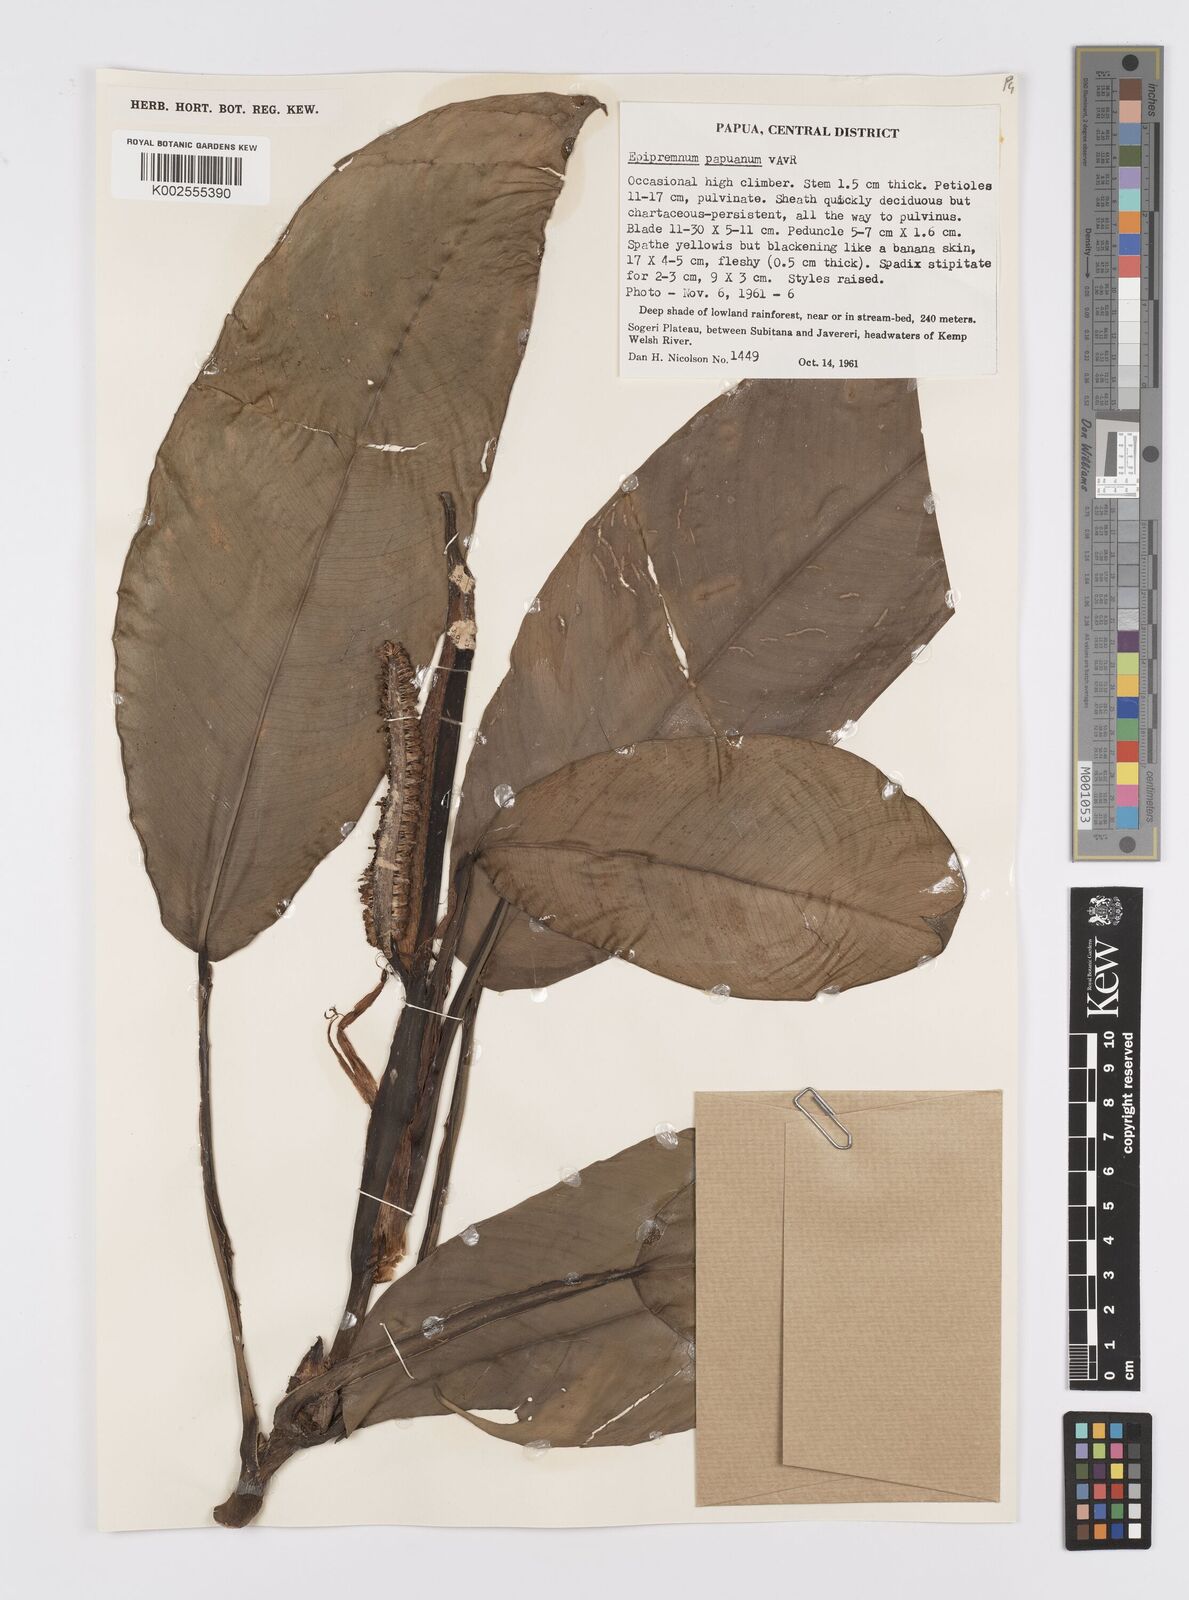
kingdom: Plantae
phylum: Tracheophyta
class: Liliopsida
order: Alismatales
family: Araceae
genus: Epipremnum
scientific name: Epipremnum papuanum
